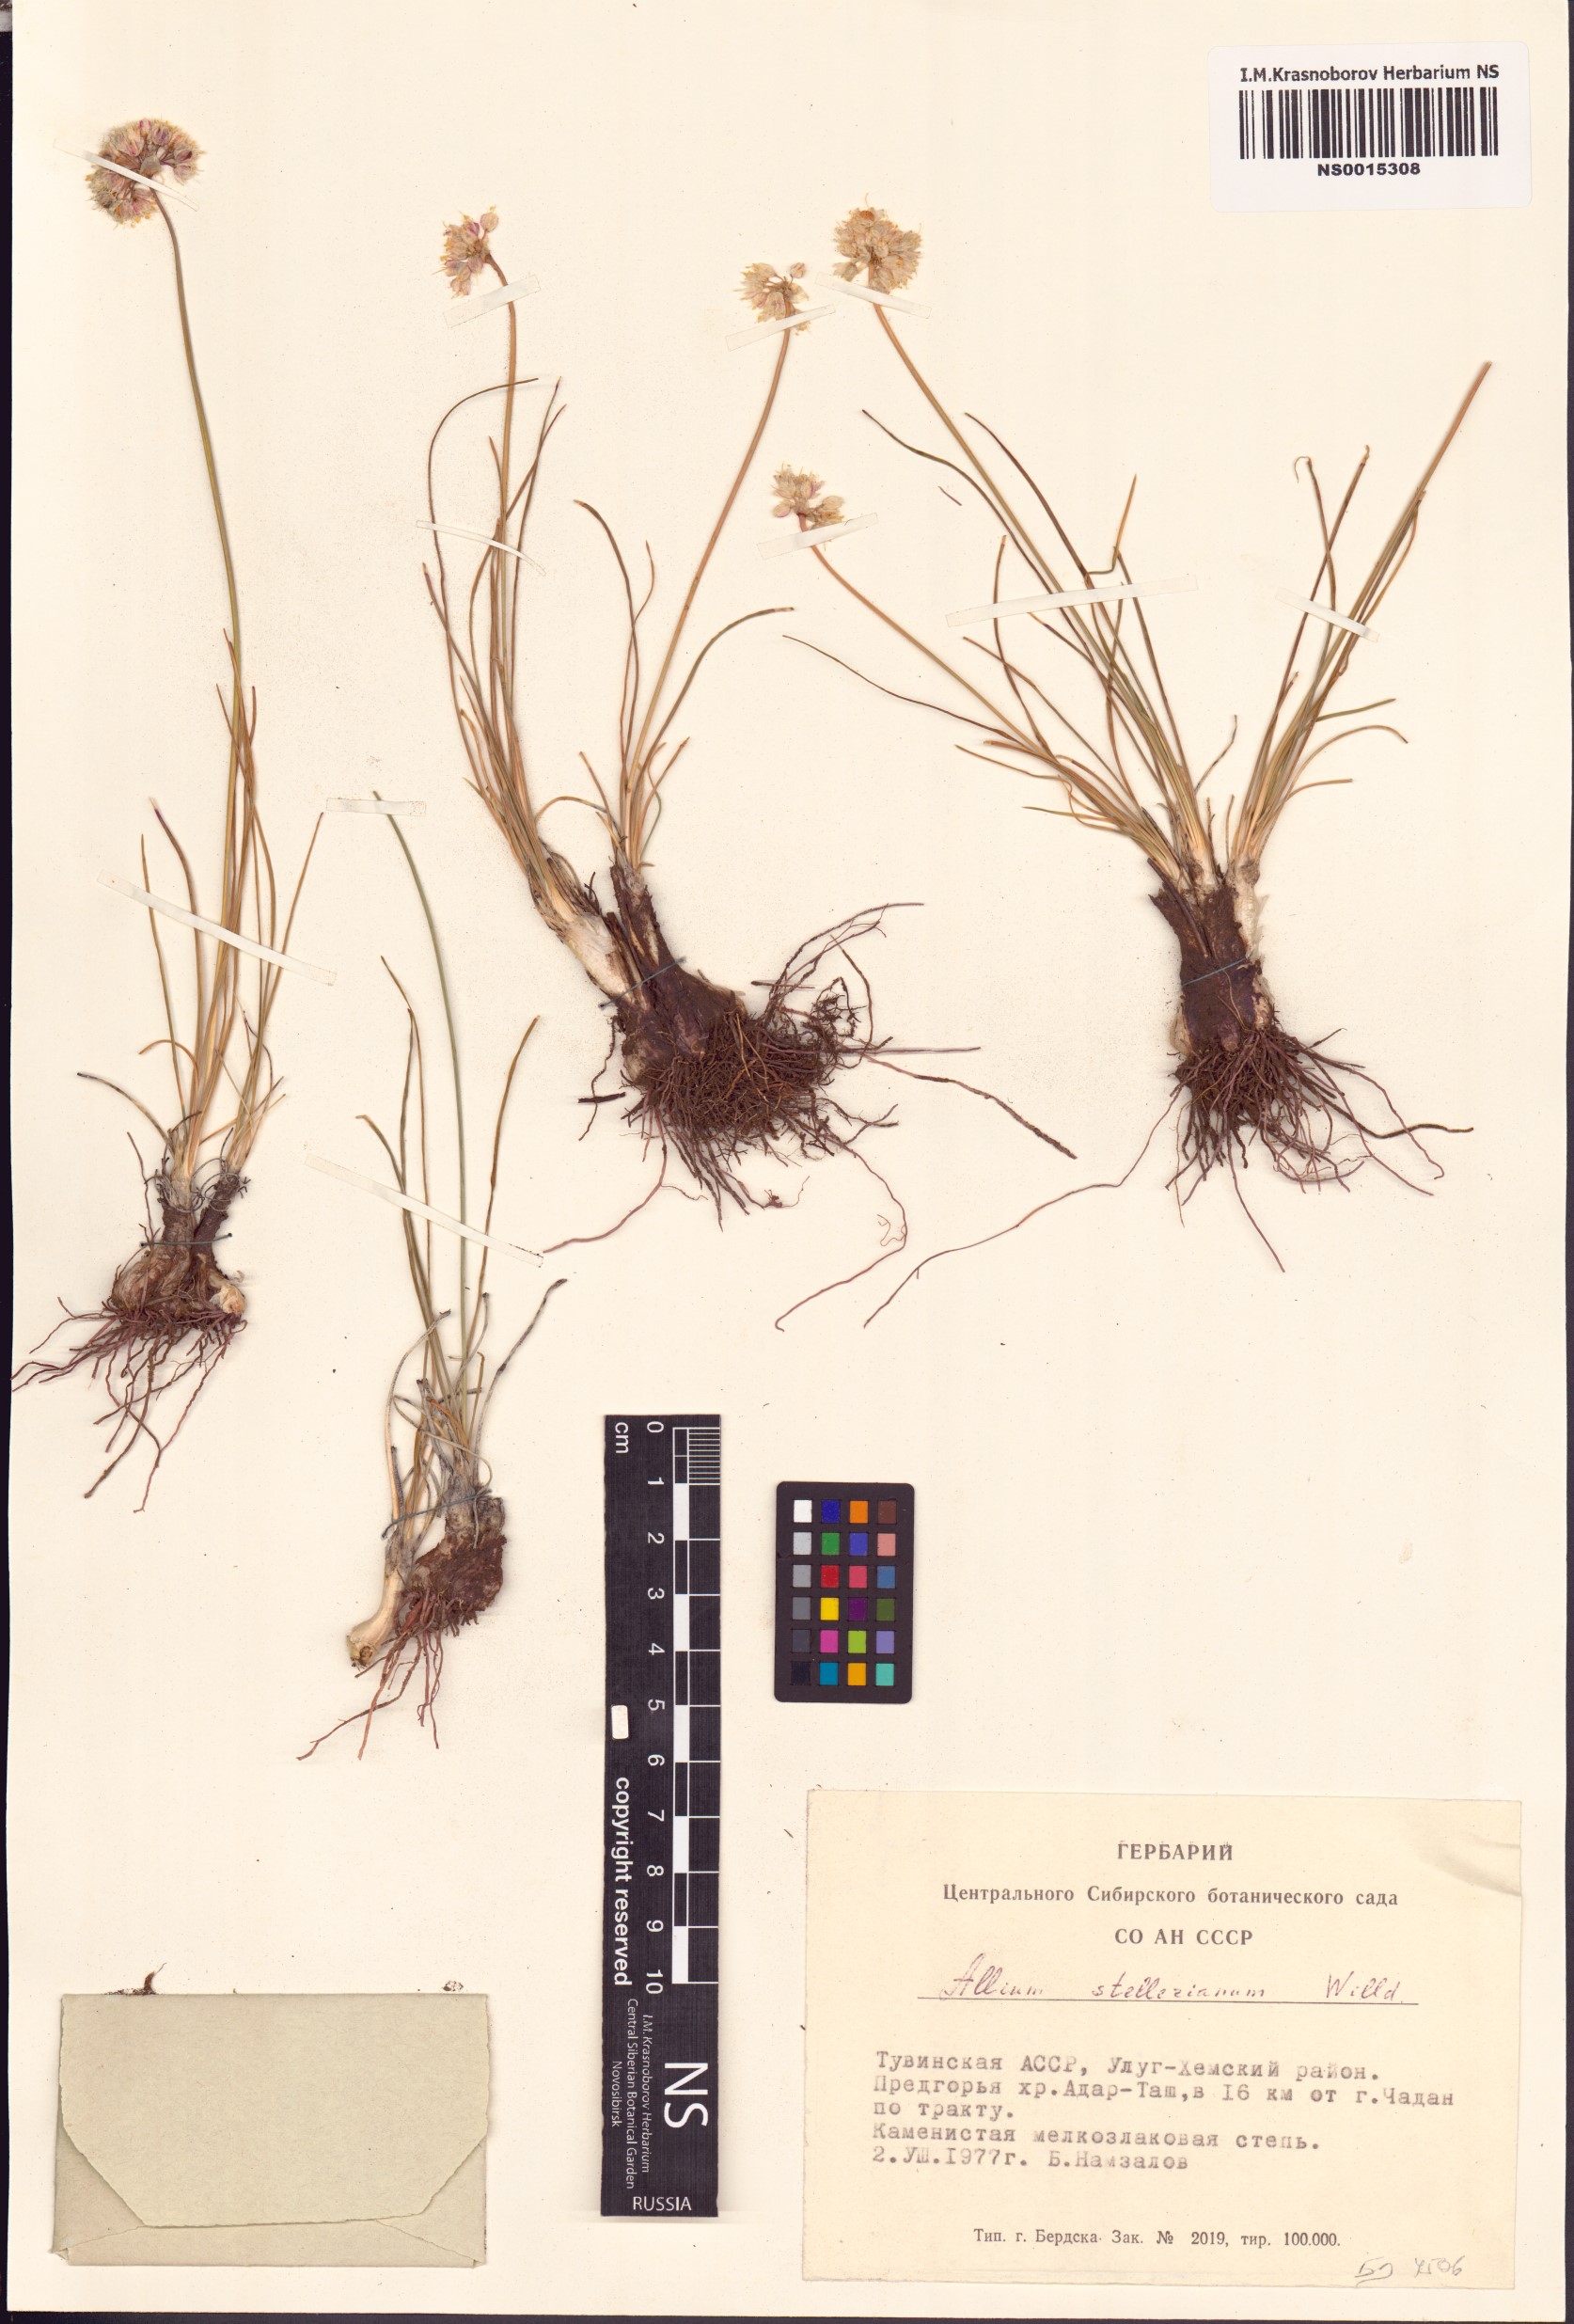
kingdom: Plantae
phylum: Tracheophyta
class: Liliopsida
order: Asparagales
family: Amaryllidaceae
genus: Allium
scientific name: Allium stellerianum
